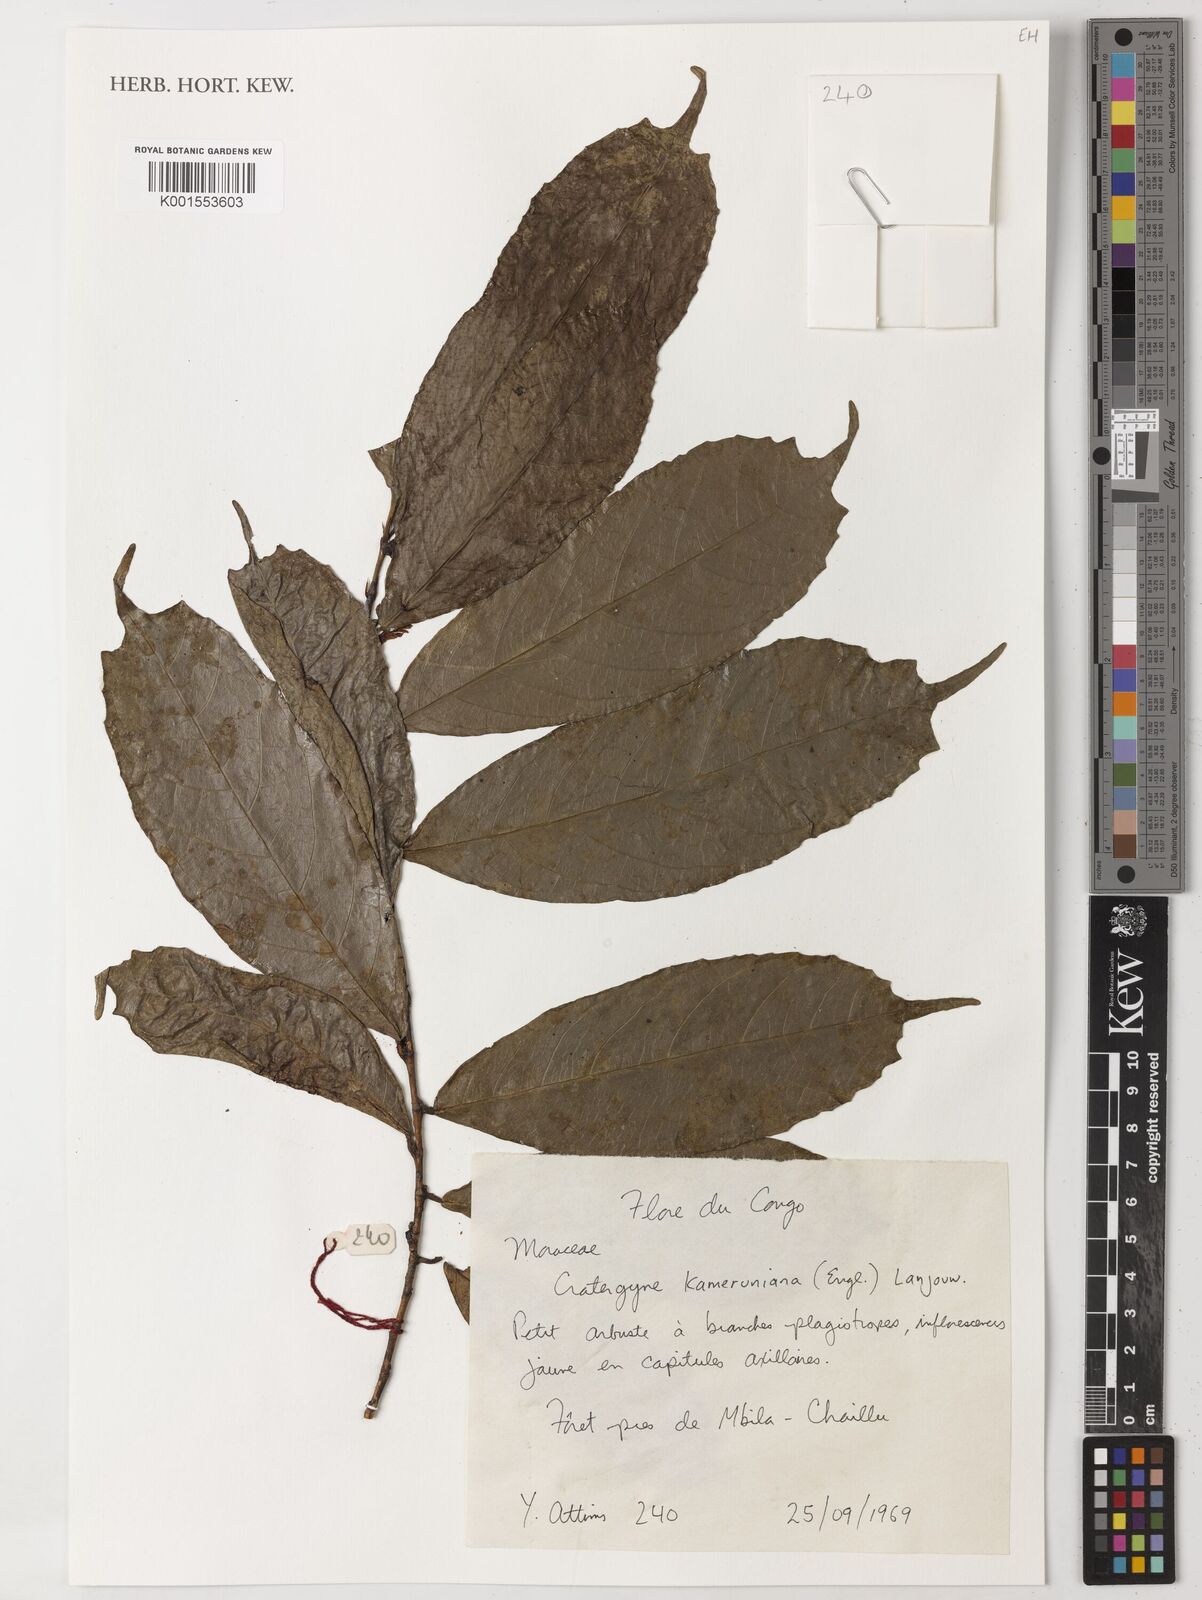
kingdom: Plantae
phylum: Tracheophyta
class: Magnoliopsida
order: Rosales
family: Moraceae
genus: Dorstenia
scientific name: Dorstenia kameruniana
